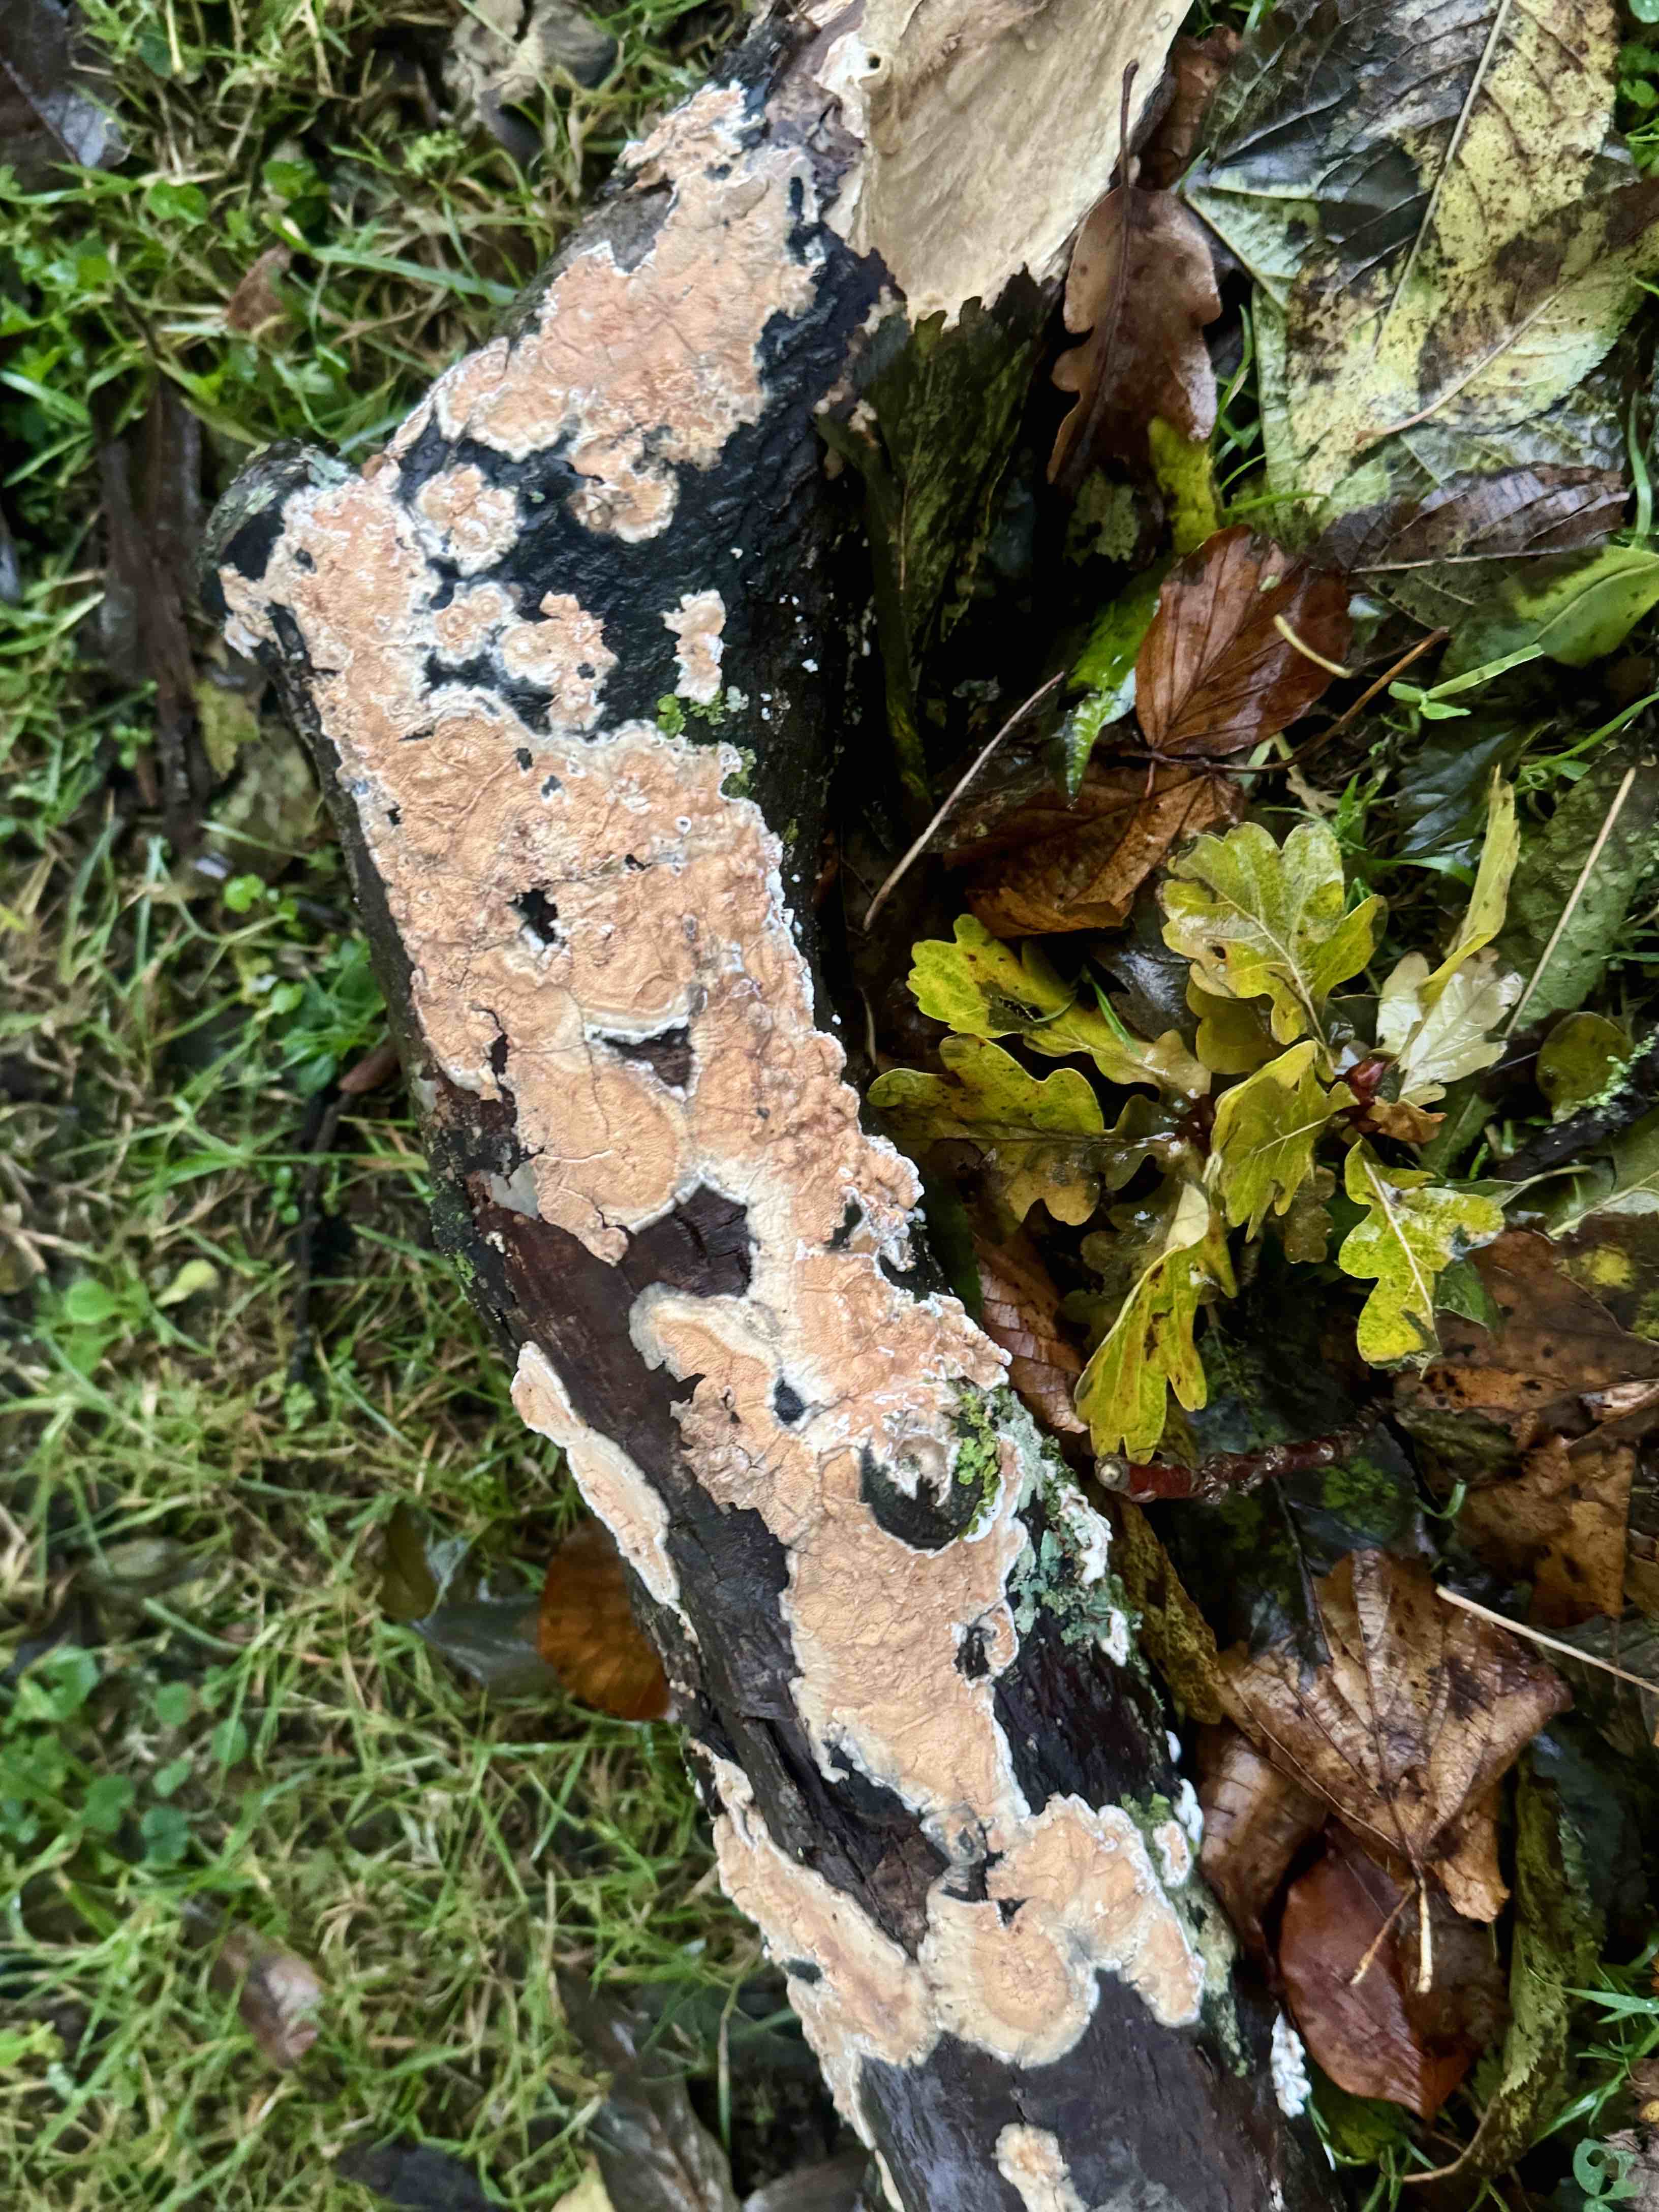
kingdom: Fungi
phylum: Basidiomycota
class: Agaricomycetes
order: Russulales
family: Peniophoraceae
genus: Peniophora
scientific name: Peniophora incarnata
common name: laksefarvet voksskind
